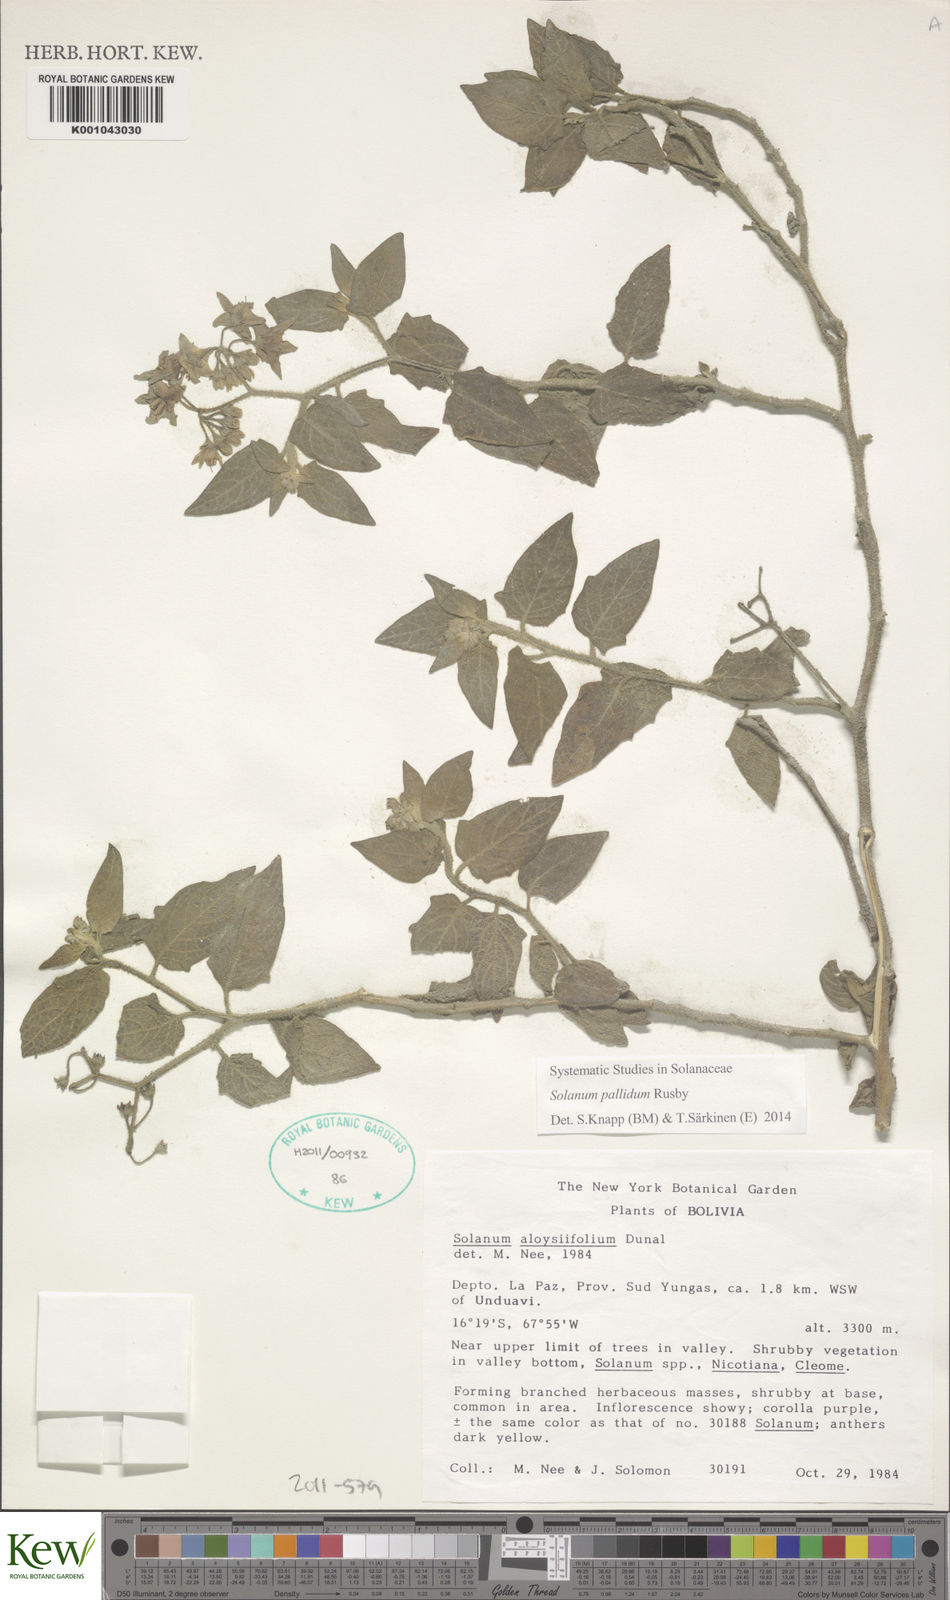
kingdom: Plantae
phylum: Tracheophyta
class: Magnoliopsida
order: Solanales
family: Solanaceae
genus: Solanum
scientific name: Solanum pallidum
